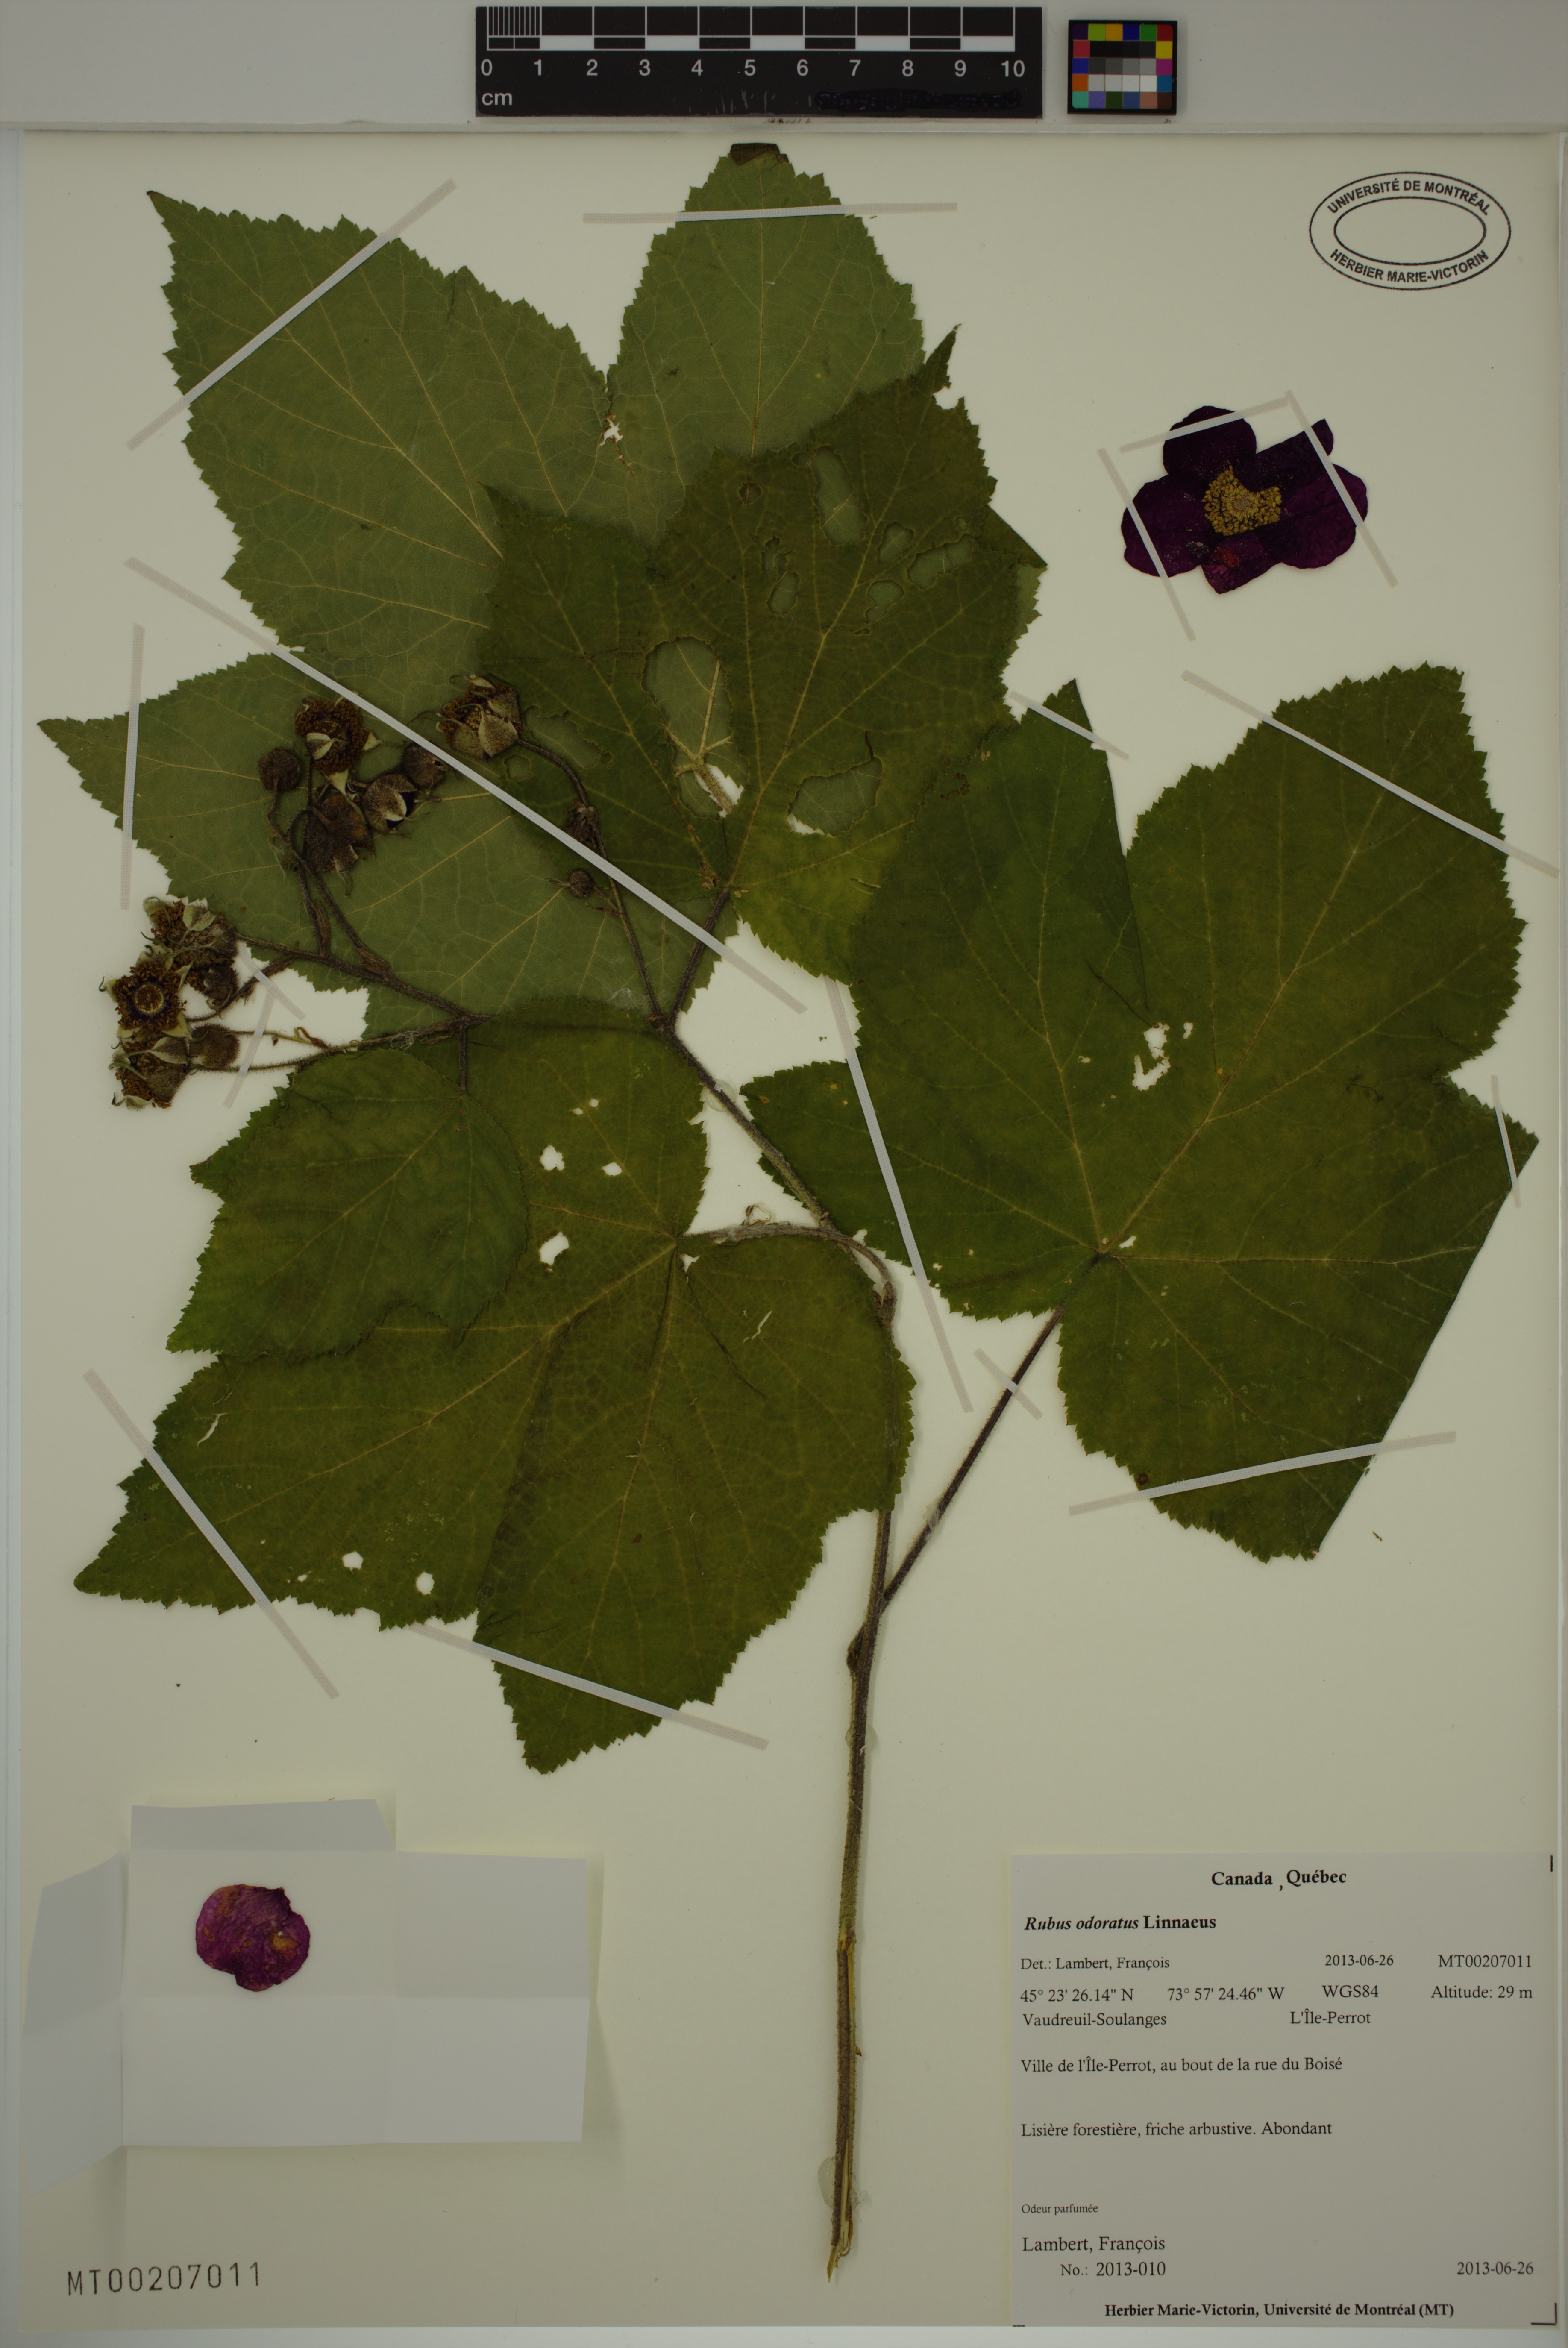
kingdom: Plantae
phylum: Tracheophyta
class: Magnoliopsida
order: Rosales
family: Rosaceae
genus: Rubus
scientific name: Rubus odoratus
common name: Purple-flowered raspberry
